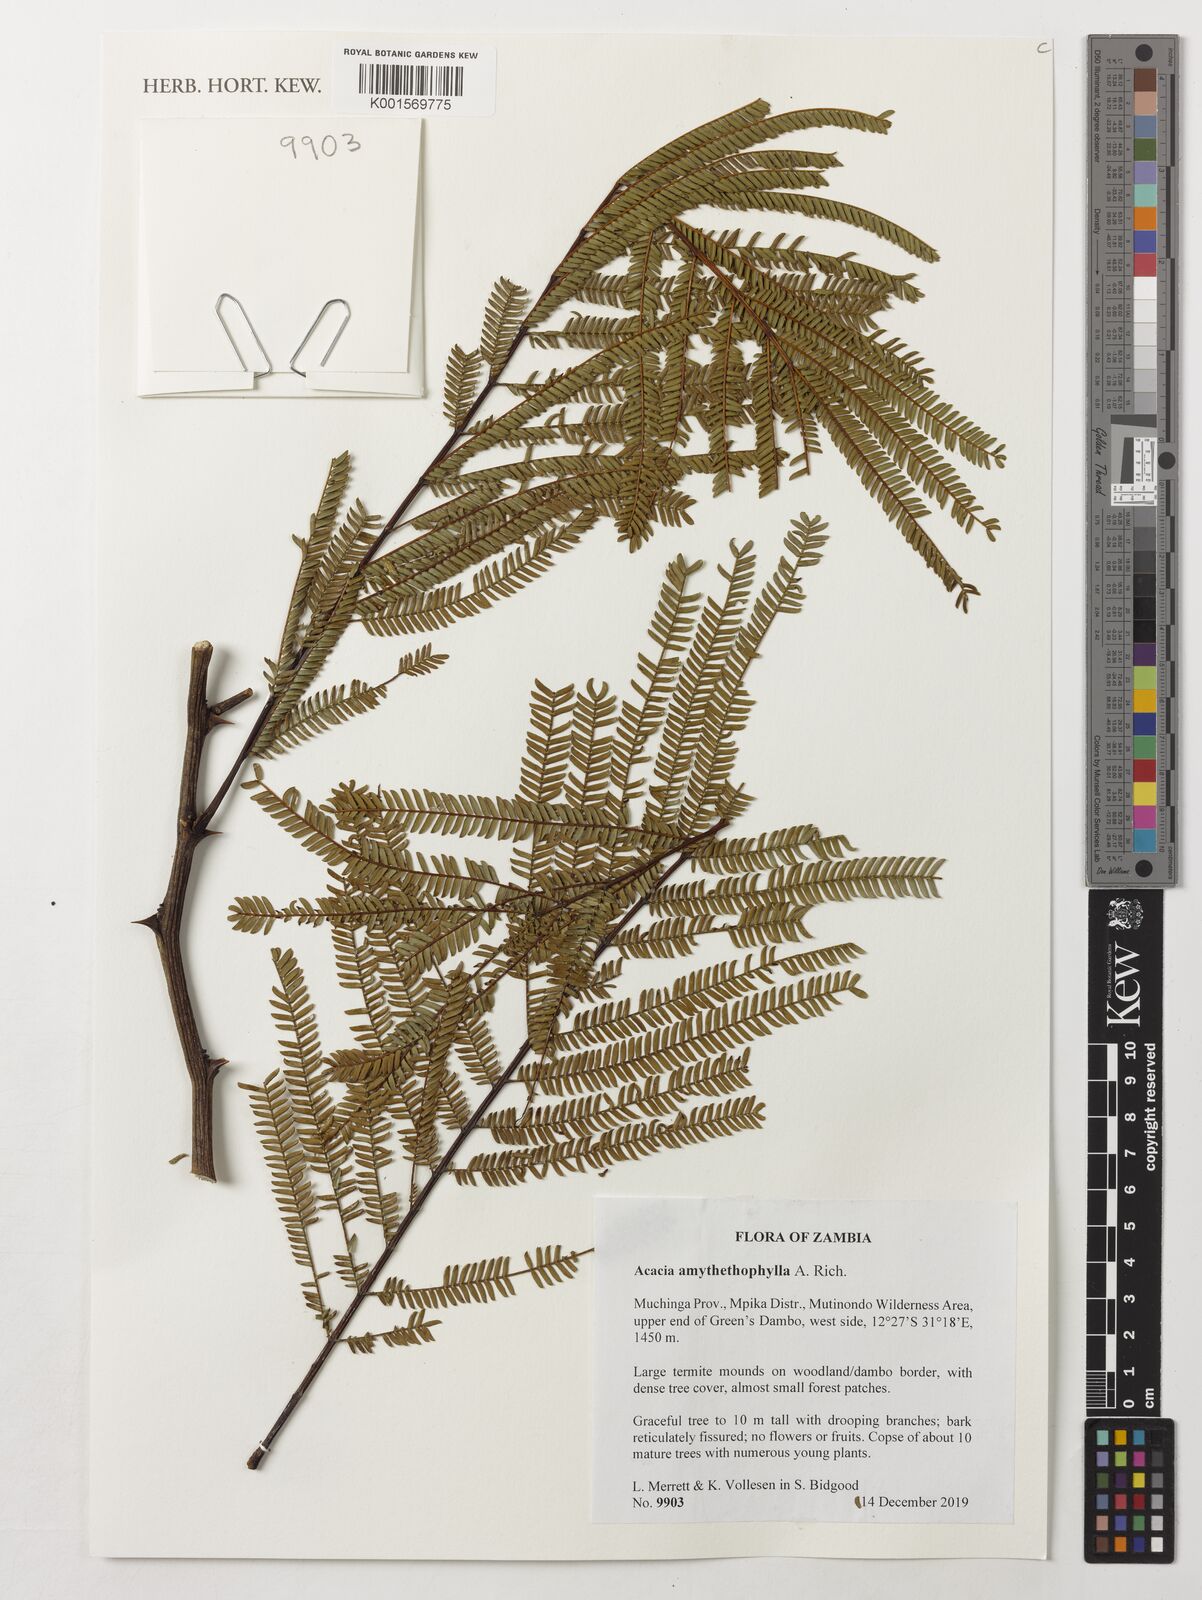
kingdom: Plantae
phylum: Tracheophyta
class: Magnoliopsida
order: Fabales
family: Fabaceae
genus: Vachellia
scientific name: Vachellia amythethophylla
